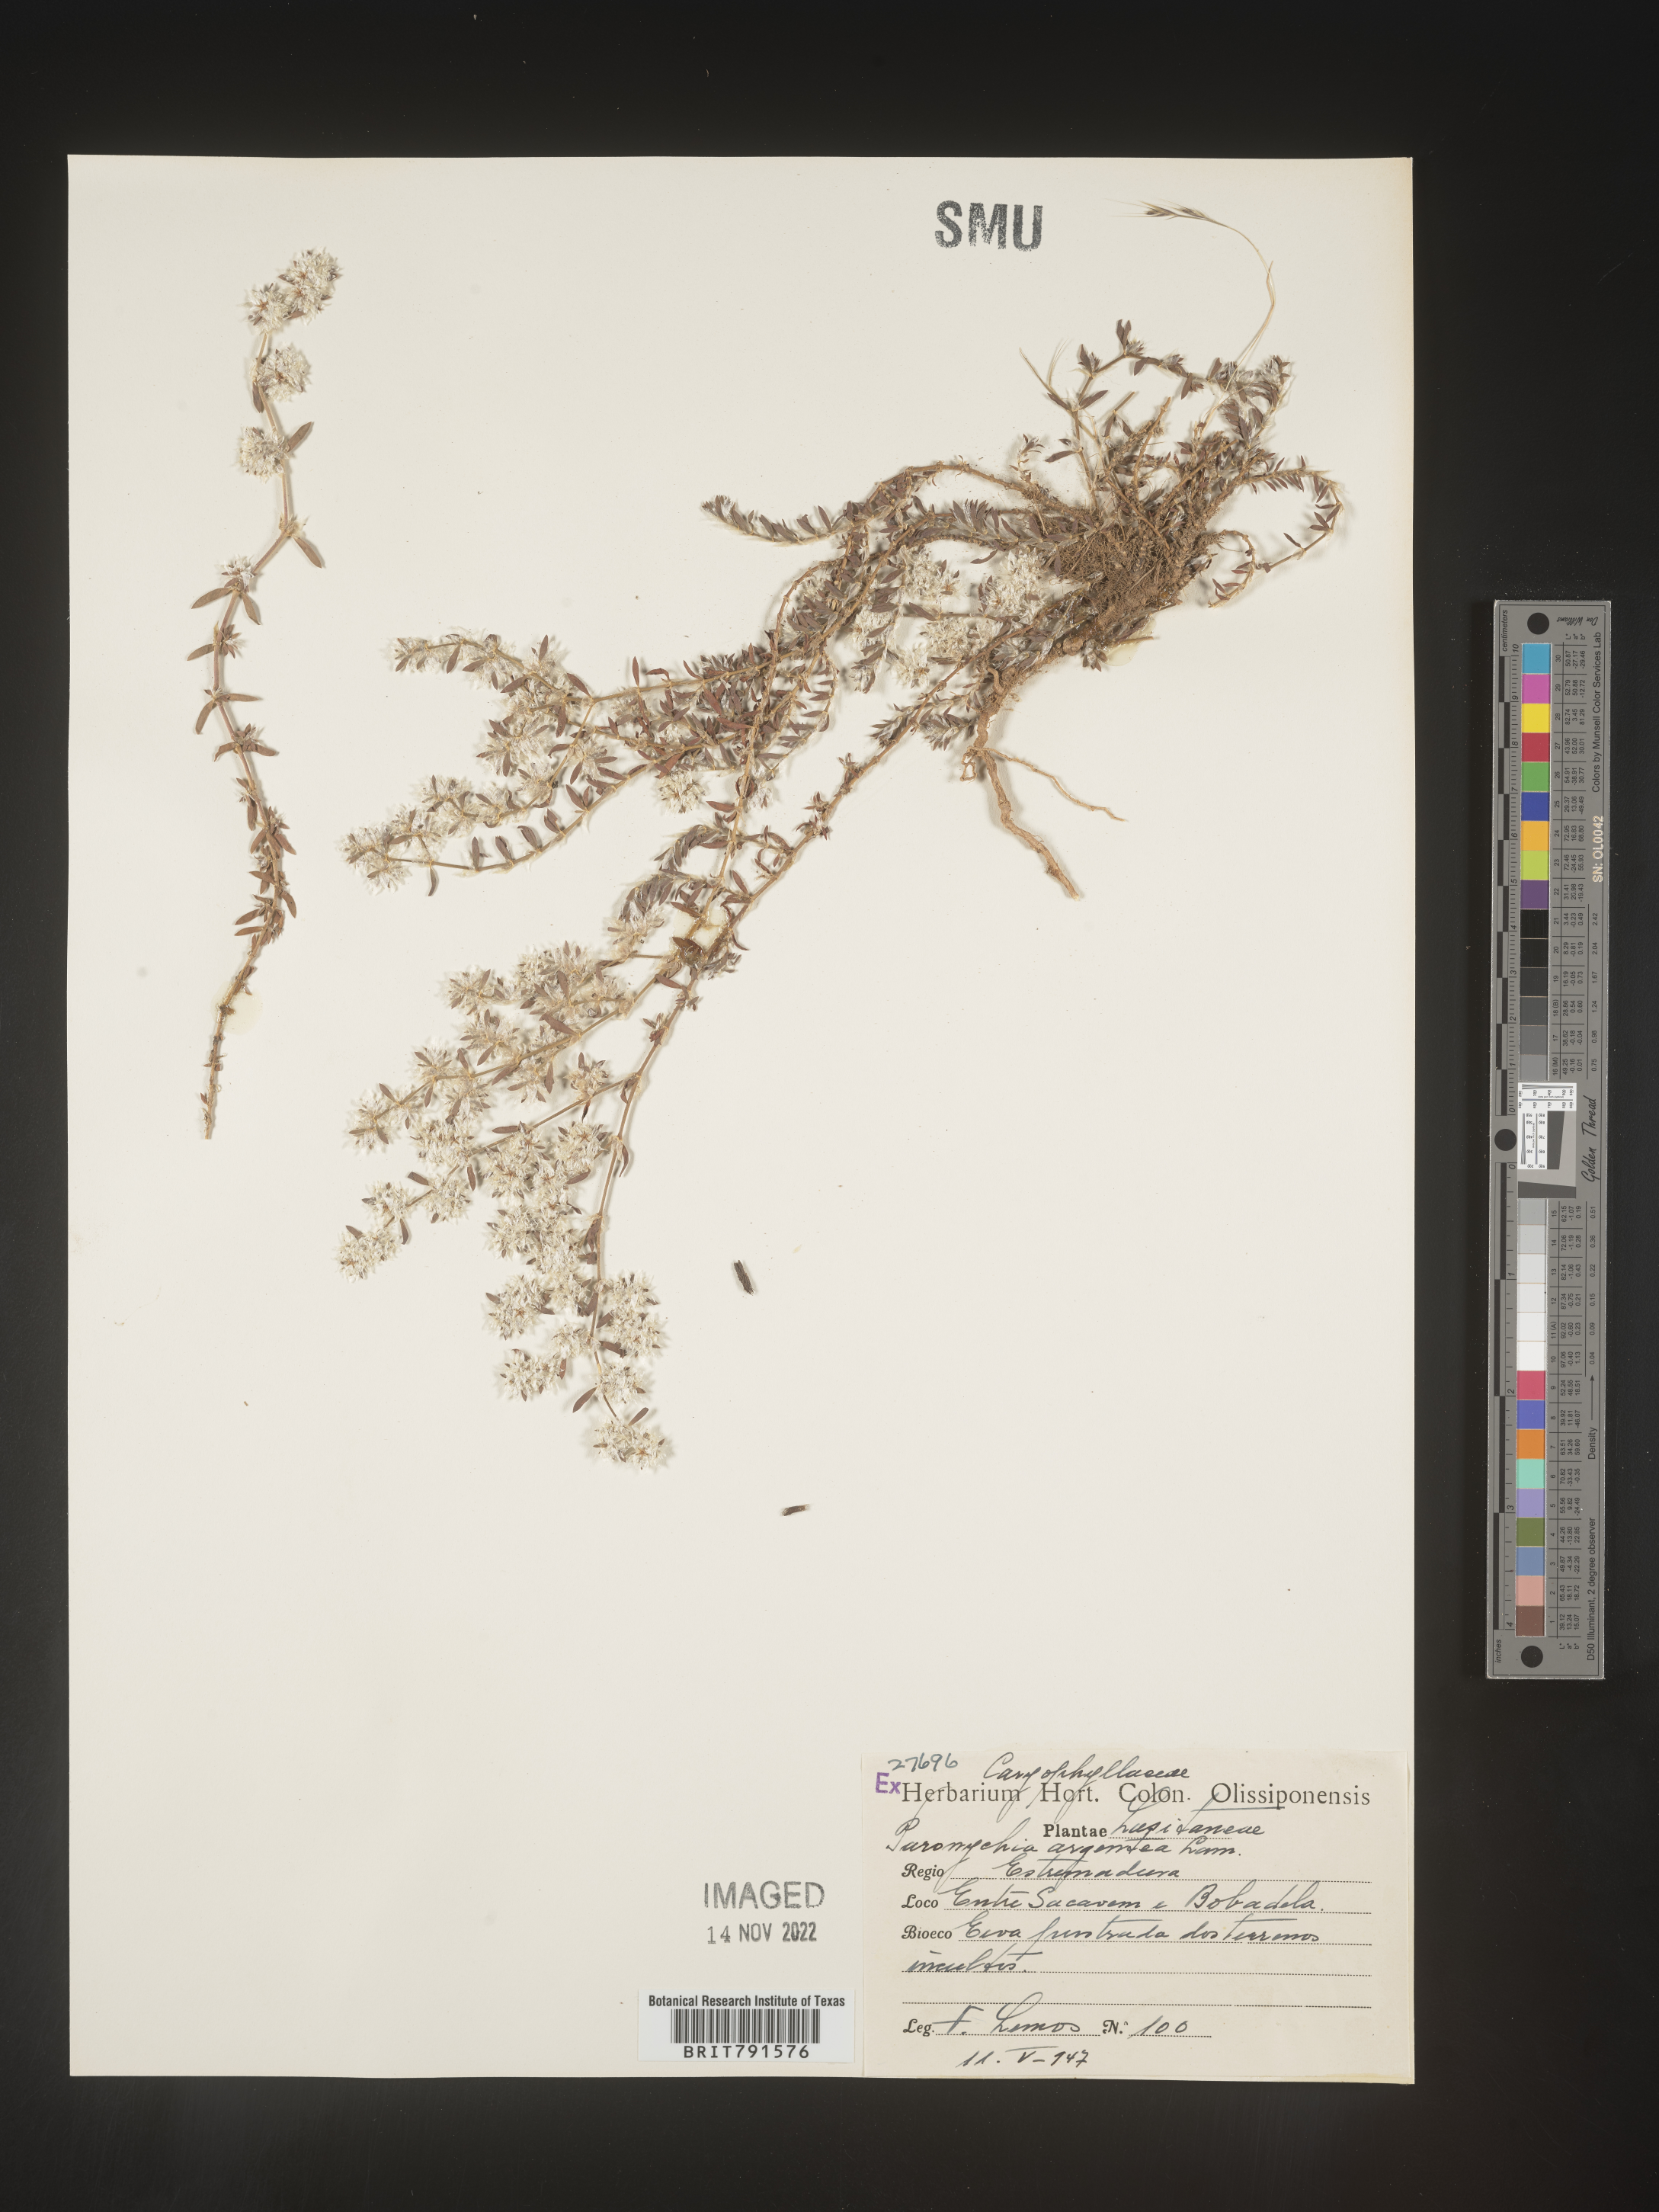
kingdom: Plantae
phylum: Tracheophyta
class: Magnoliopsida
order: Caryophyllales
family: Caryophyllaceae
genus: Paronychia
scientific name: Paronychia
